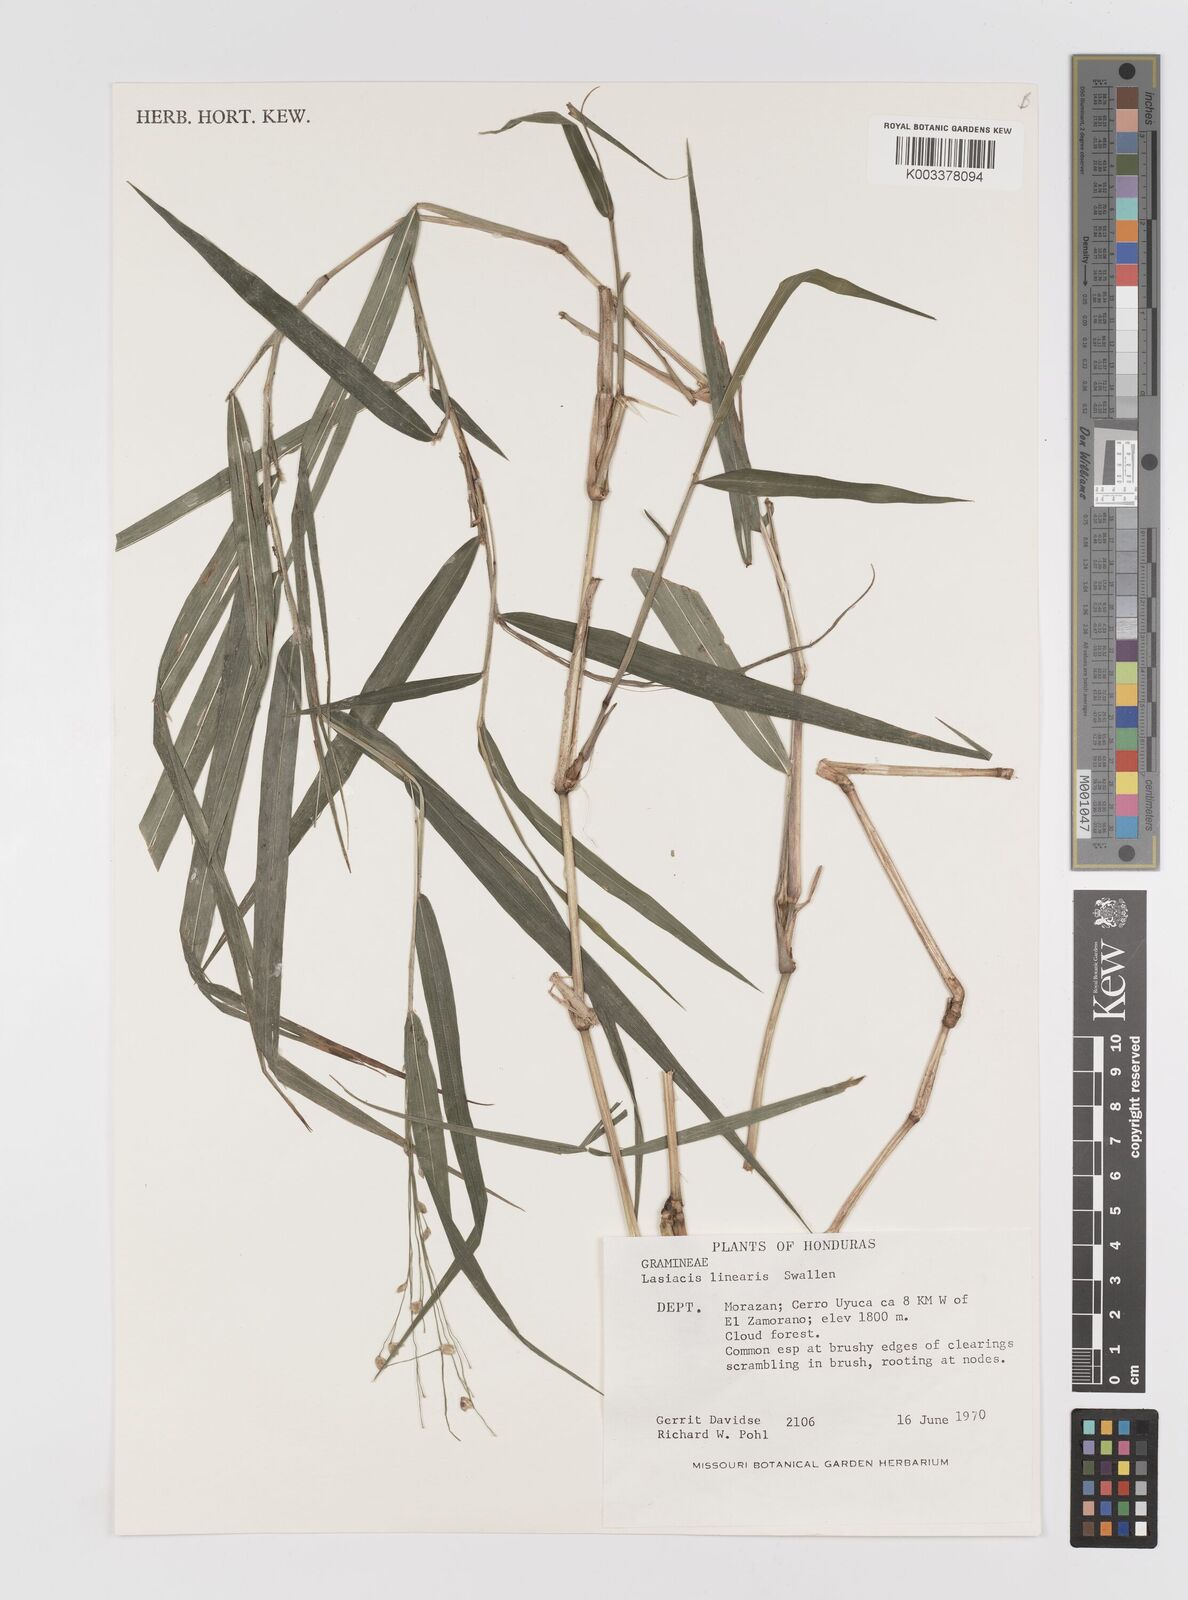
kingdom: Plantae
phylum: Tracheophyta
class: Liliopsida
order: Poales
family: Poaceae
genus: Lasiacis
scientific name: Lasiacis linearis
